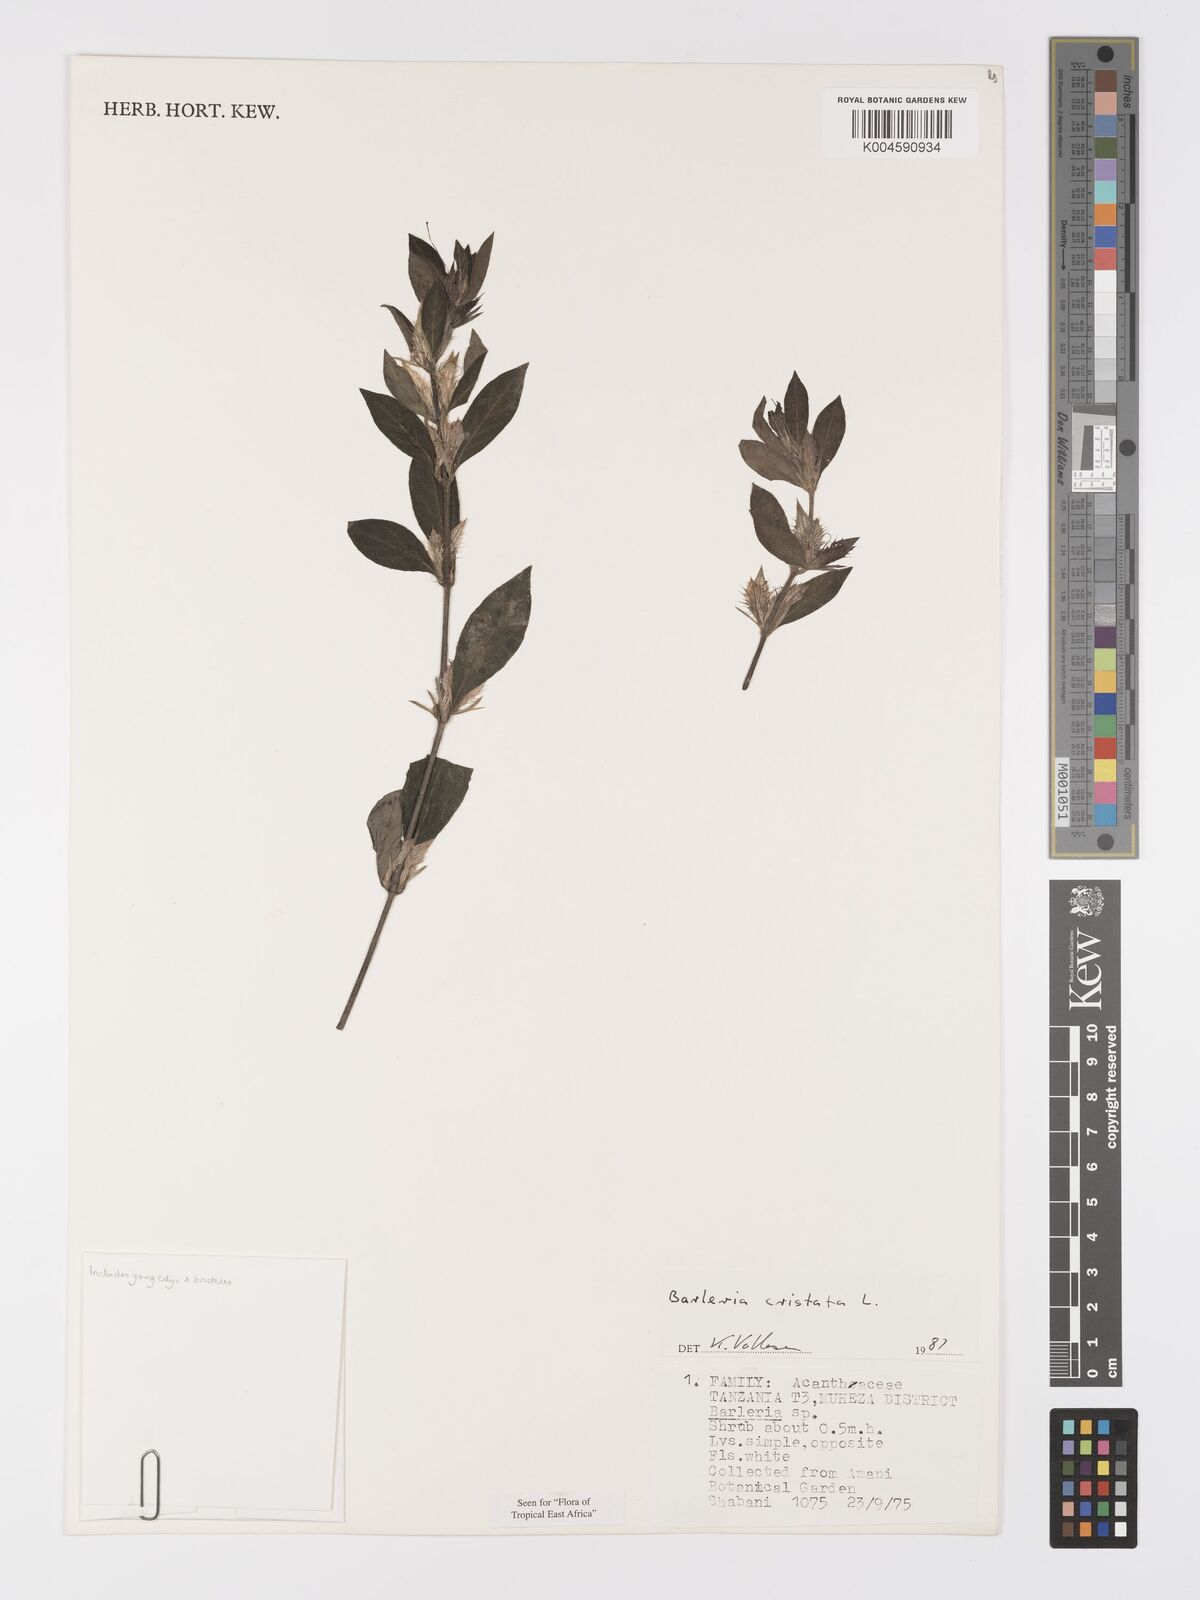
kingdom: Plantae
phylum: Tracheophyta
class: Magnoliopsida
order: Lamiales
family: Acanthaceae
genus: Barleria
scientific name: Barleria cristata
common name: Crested philippine violet
